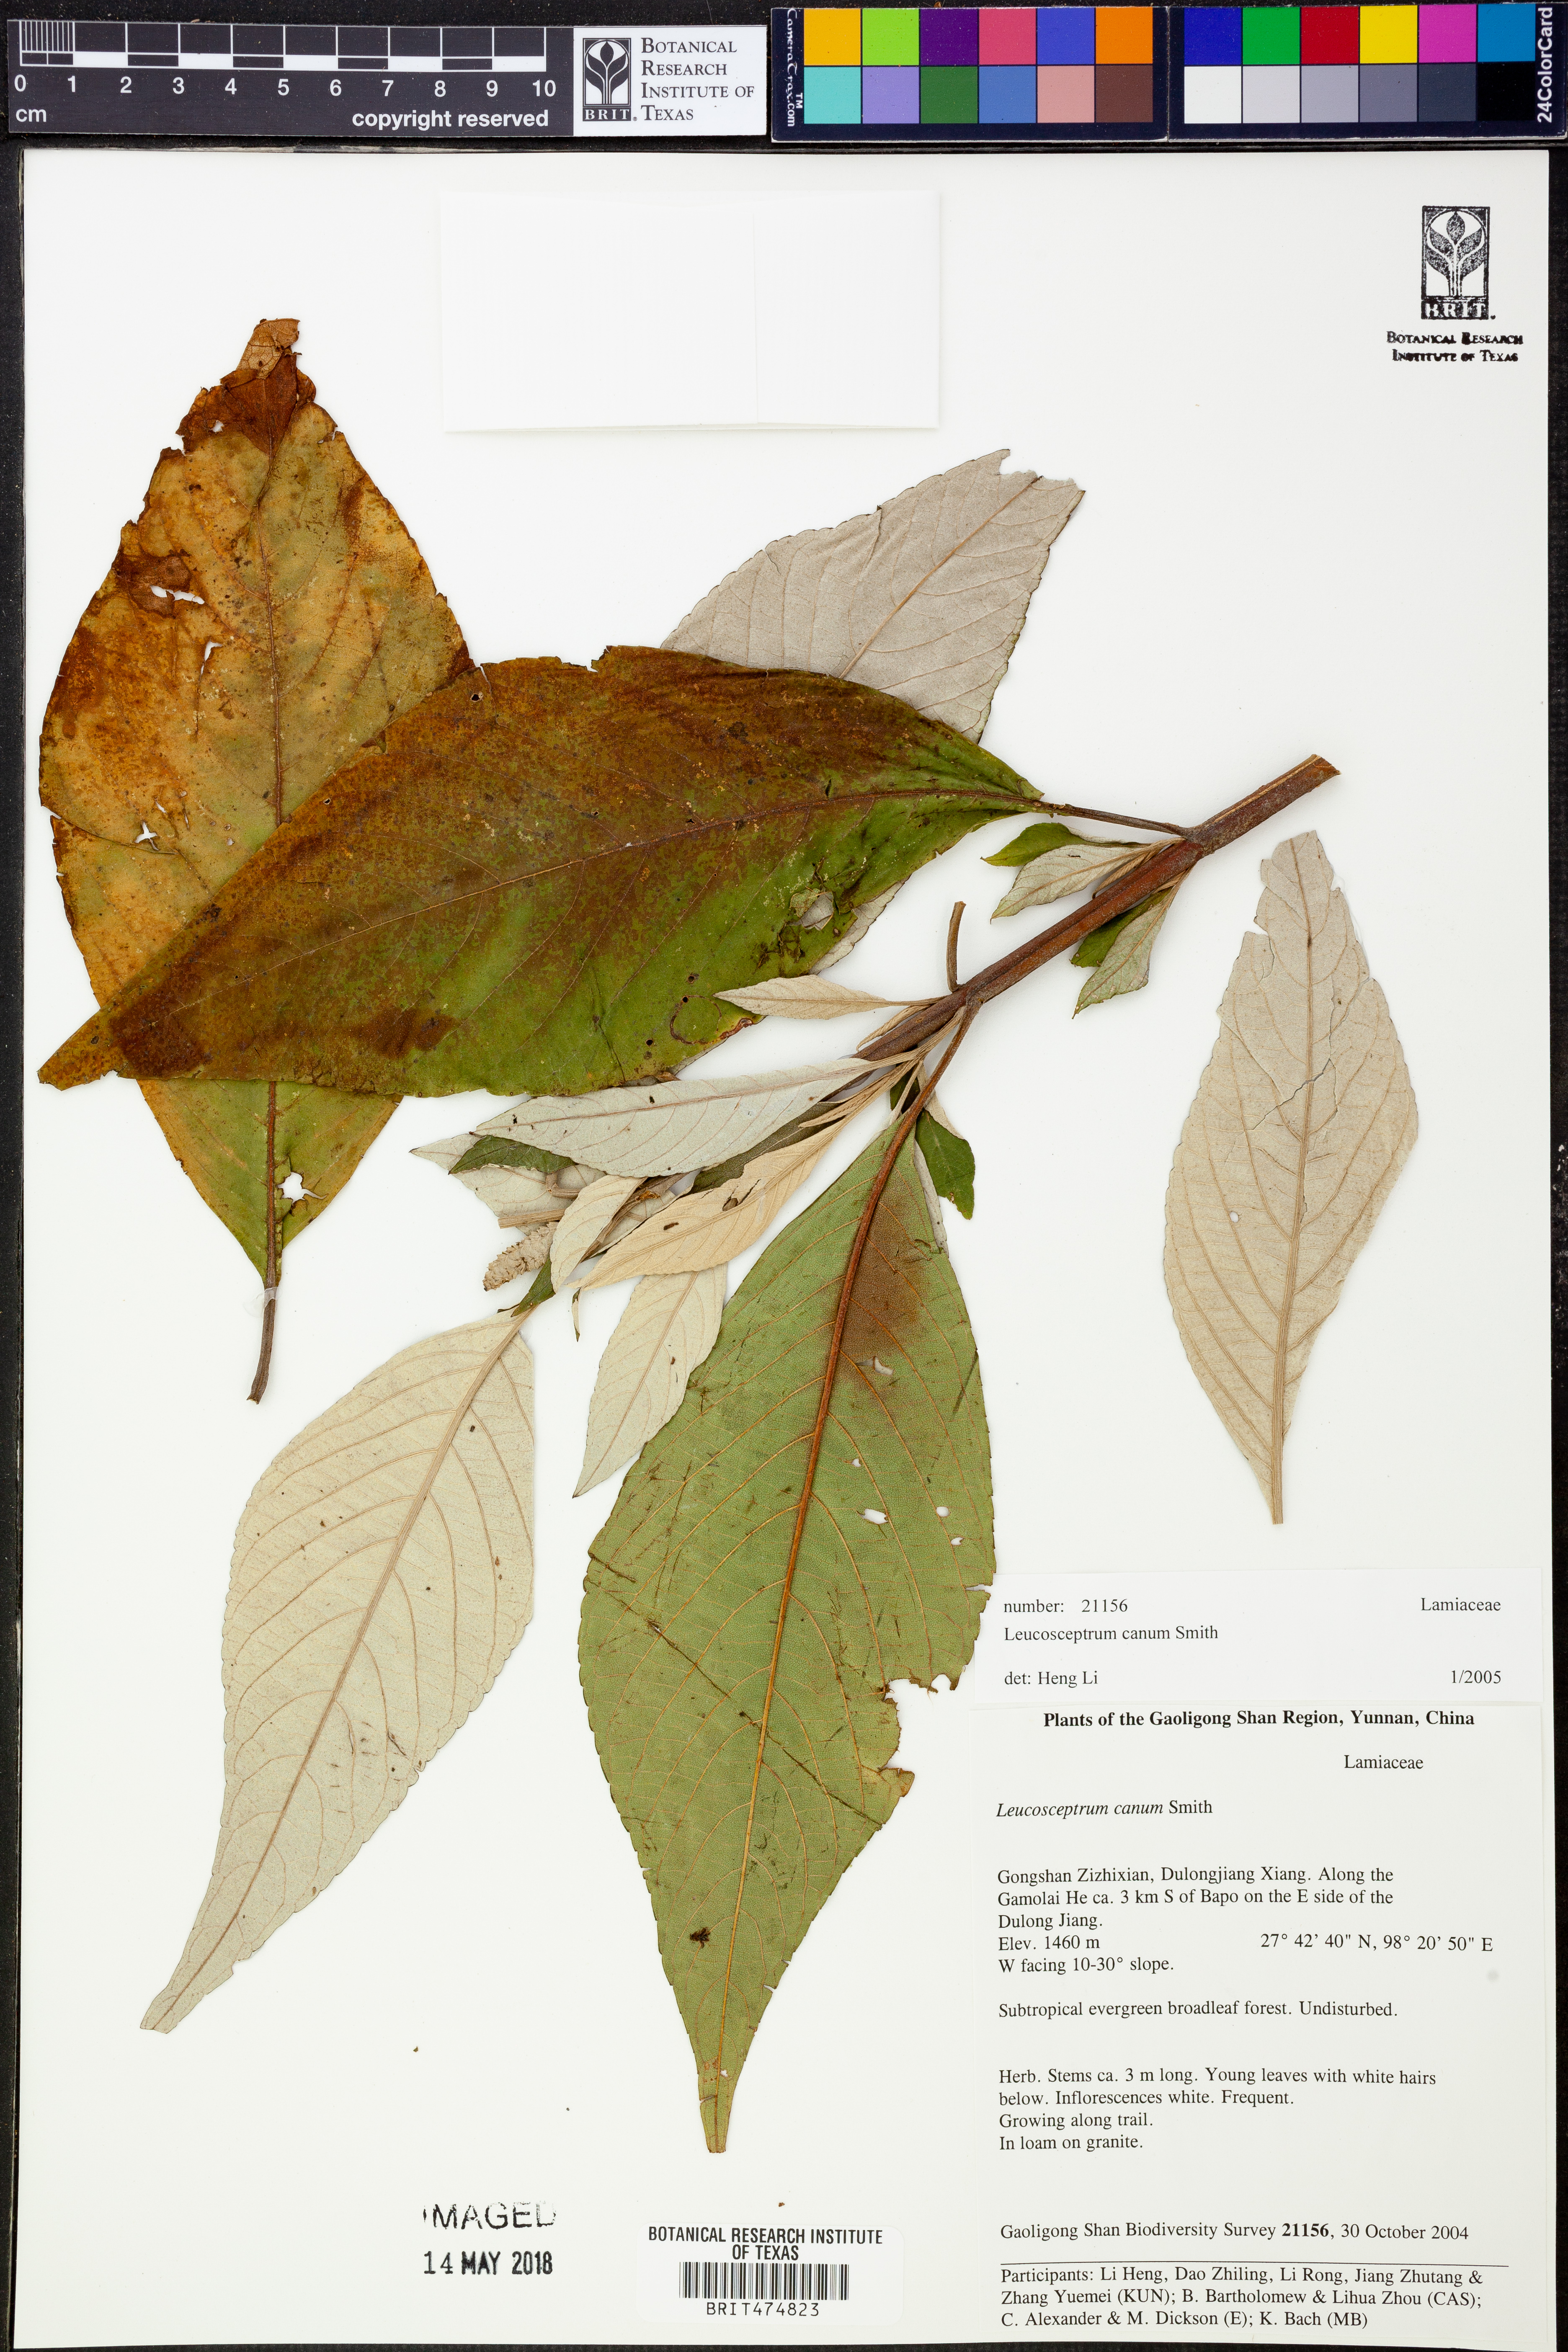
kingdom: Plantae
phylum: Tracheophyta
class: Magnoliopsida
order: Lamiales
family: Lamiaceae
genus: Leucosceptrum
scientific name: Leucosceptrum canum
